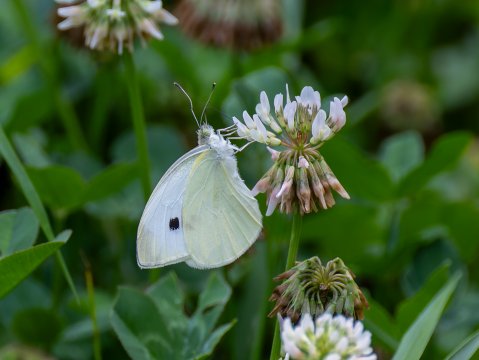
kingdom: Animalia
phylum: Arthropoda
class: Insecta
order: Lepidoptera
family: Pieridae
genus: Pieris
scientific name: Pieris rapae
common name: Cabbage White
